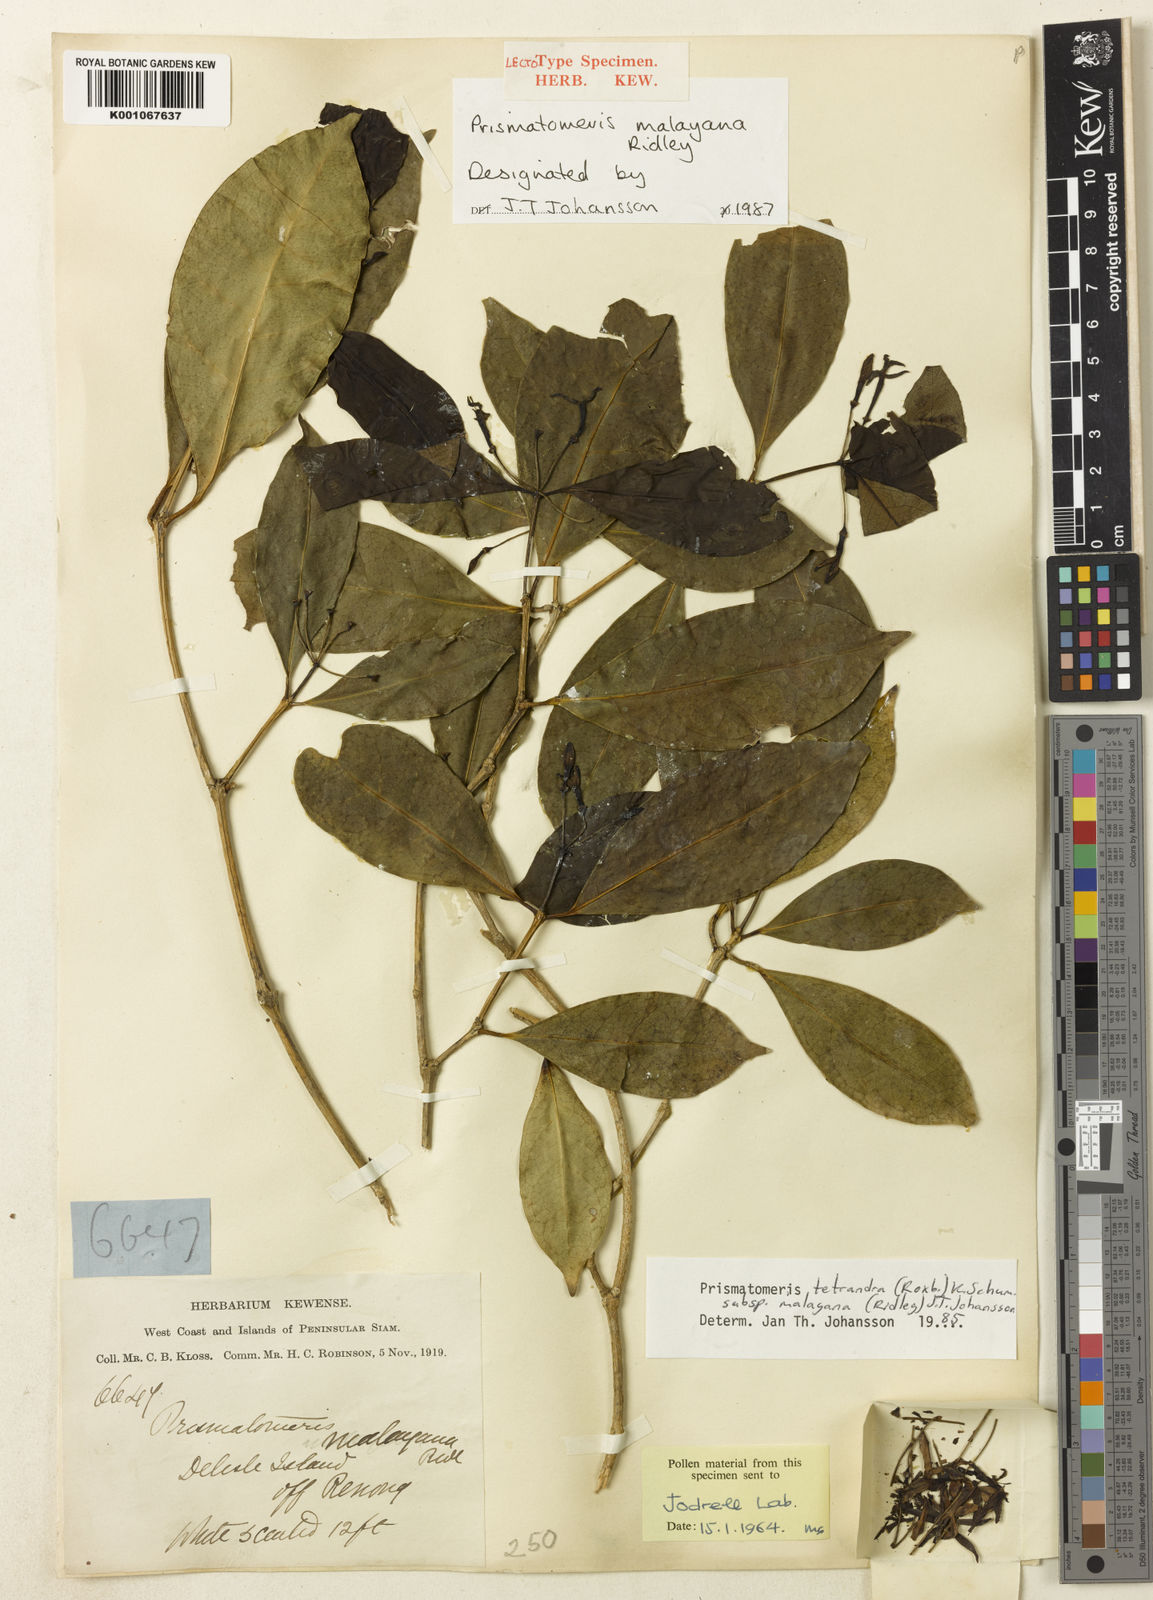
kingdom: Plantae
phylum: Tracheophyta
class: Magnoliopsida
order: Gentianales
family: Rubiaceae
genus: Prismatomeris
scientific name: Prismatomeris tetrandra
